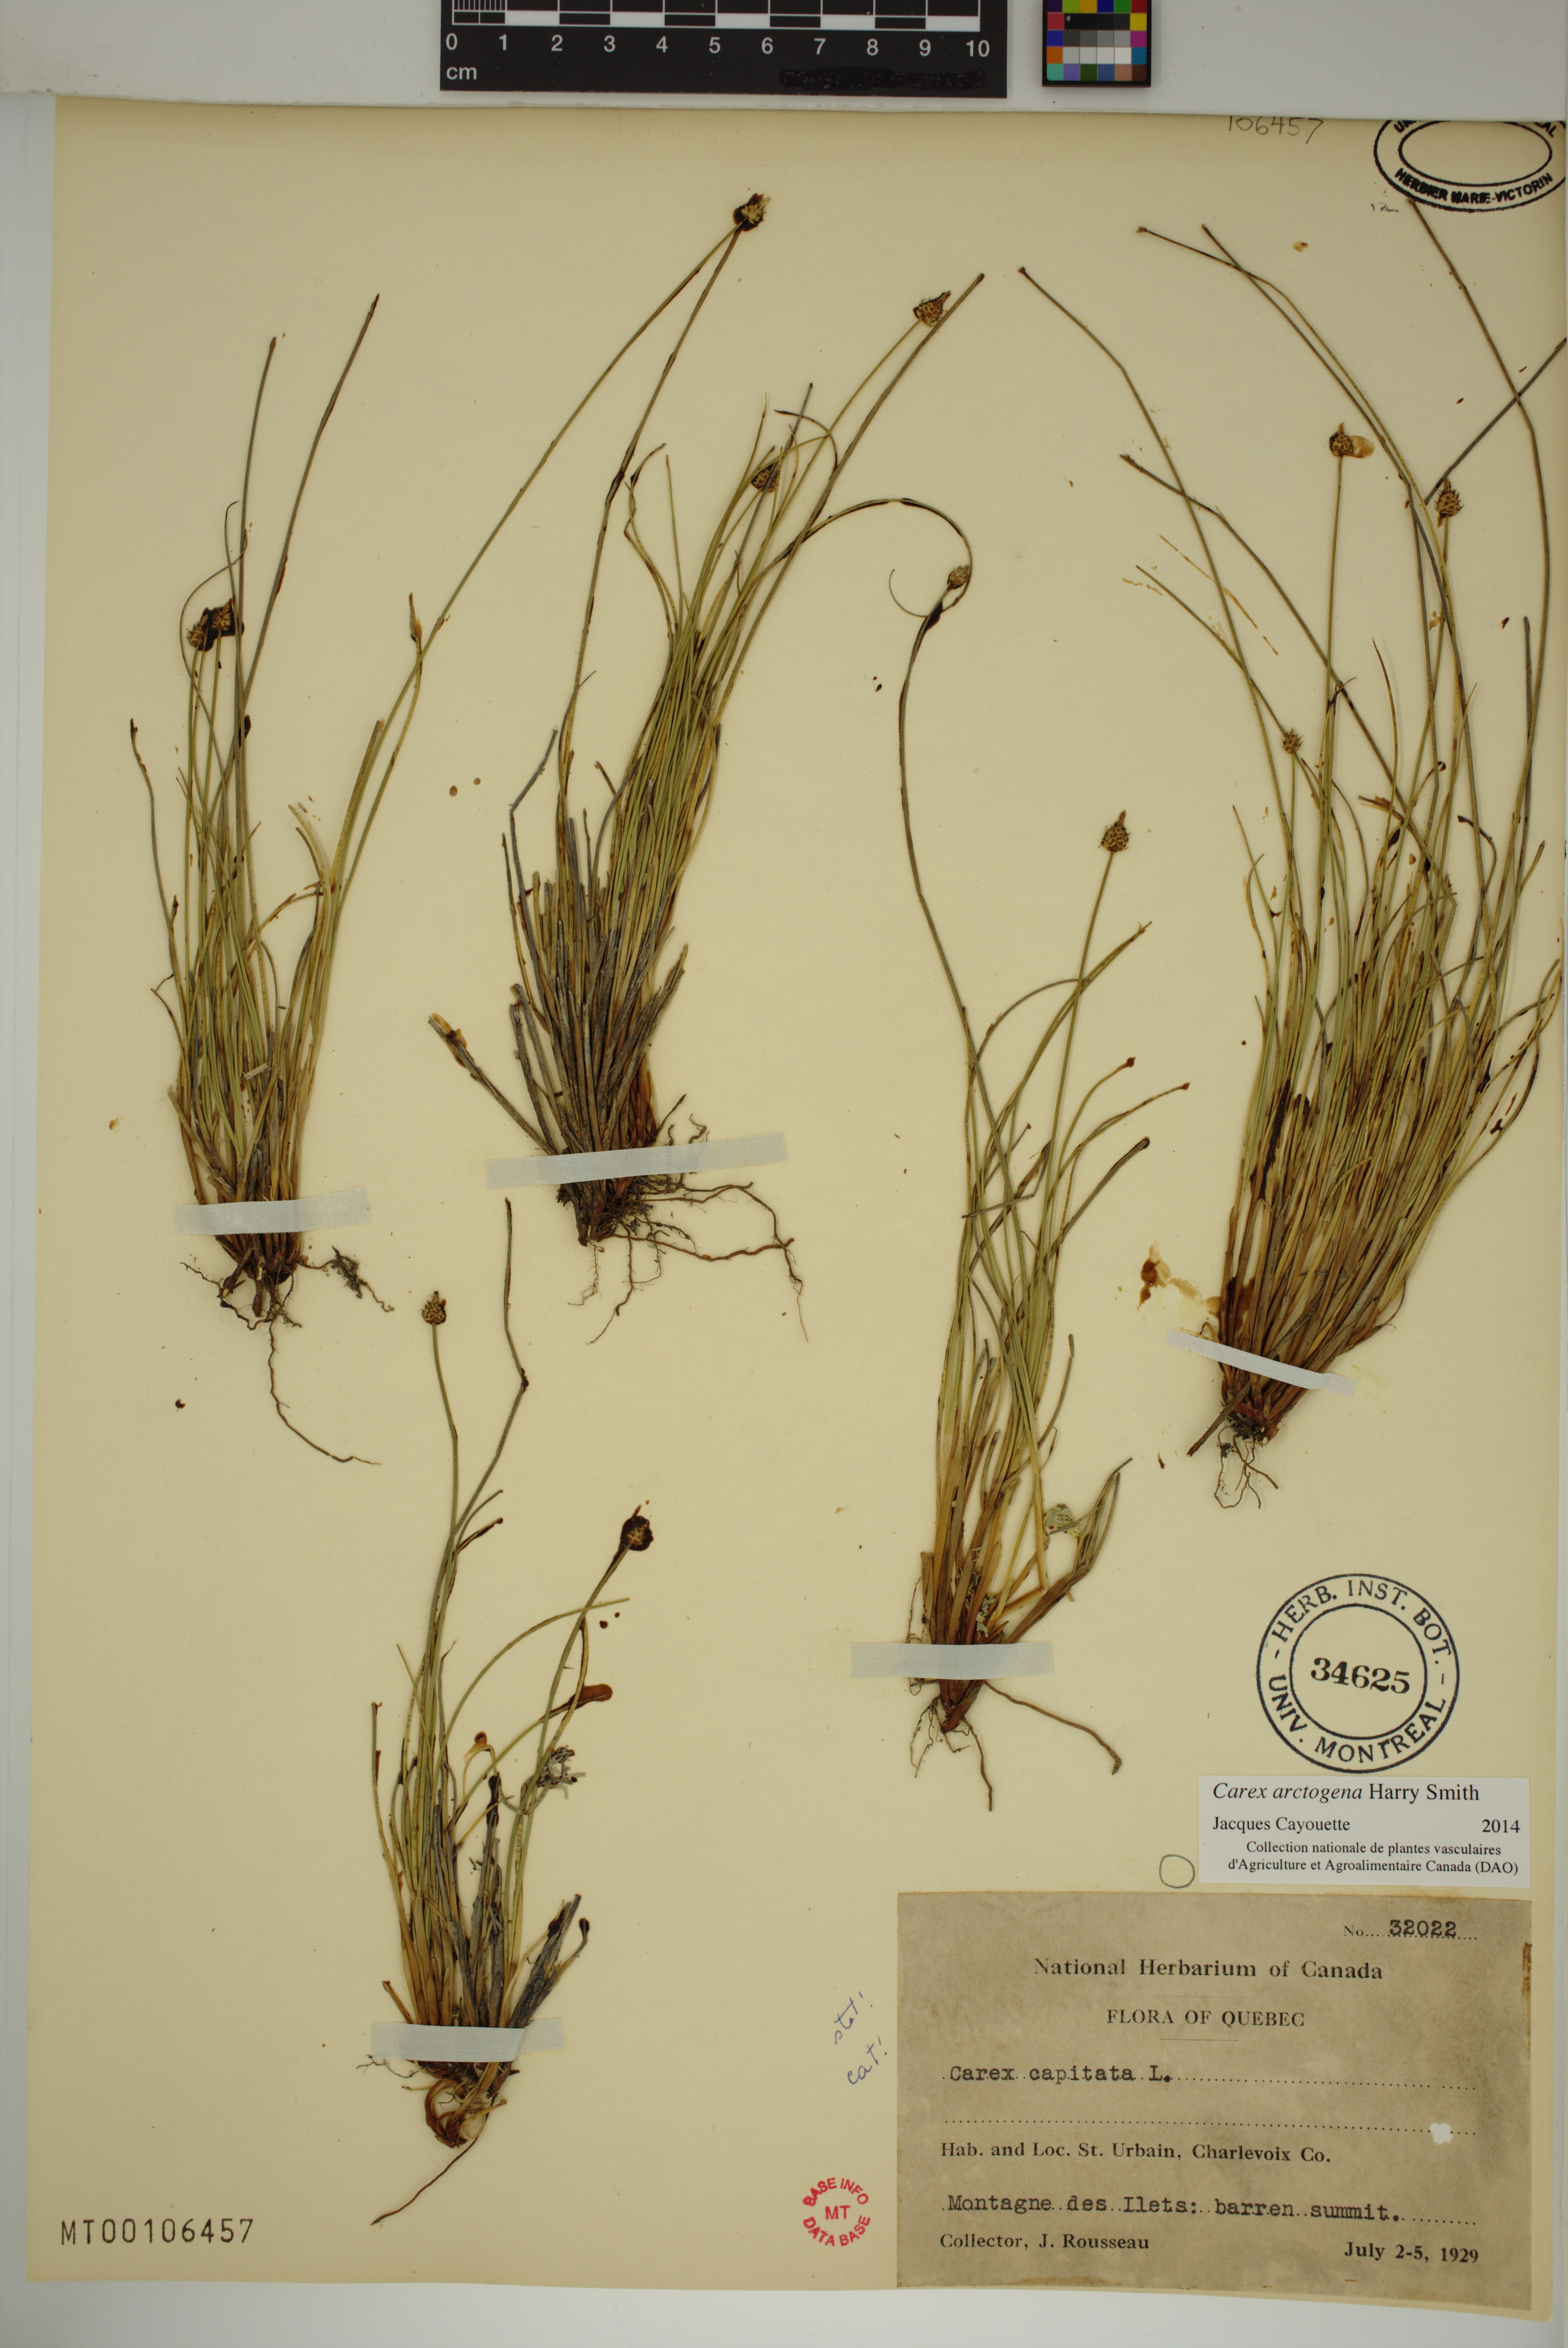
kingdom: Plantae
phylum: Tracheophyta
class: Liliopsida
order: Poales
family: Cyperaceae
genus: Carex
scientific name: Carex arctogena
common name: Black sedge
